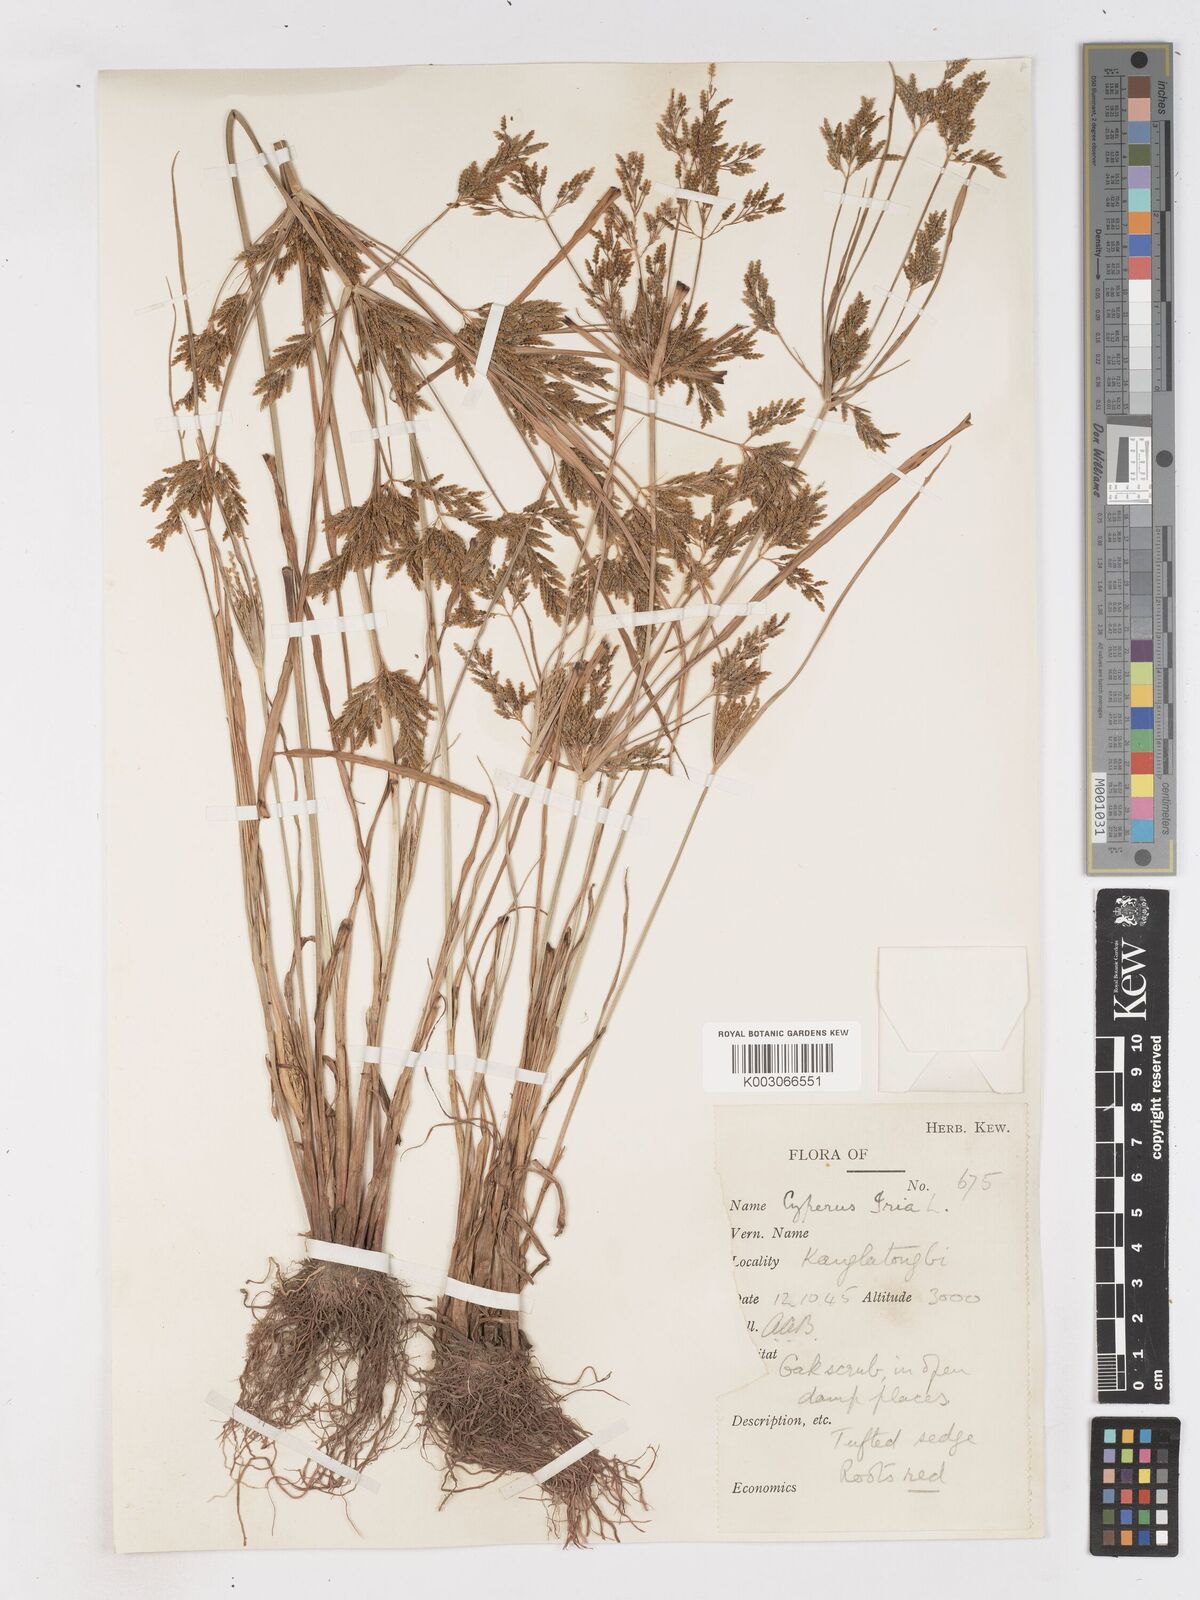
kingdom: Plantae
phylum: Tracheophyta
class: Liliopsida
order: Poales
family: Cyperaceae
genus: Cyperus
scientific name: Cyperus iria
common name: Ricefield flatsedge
